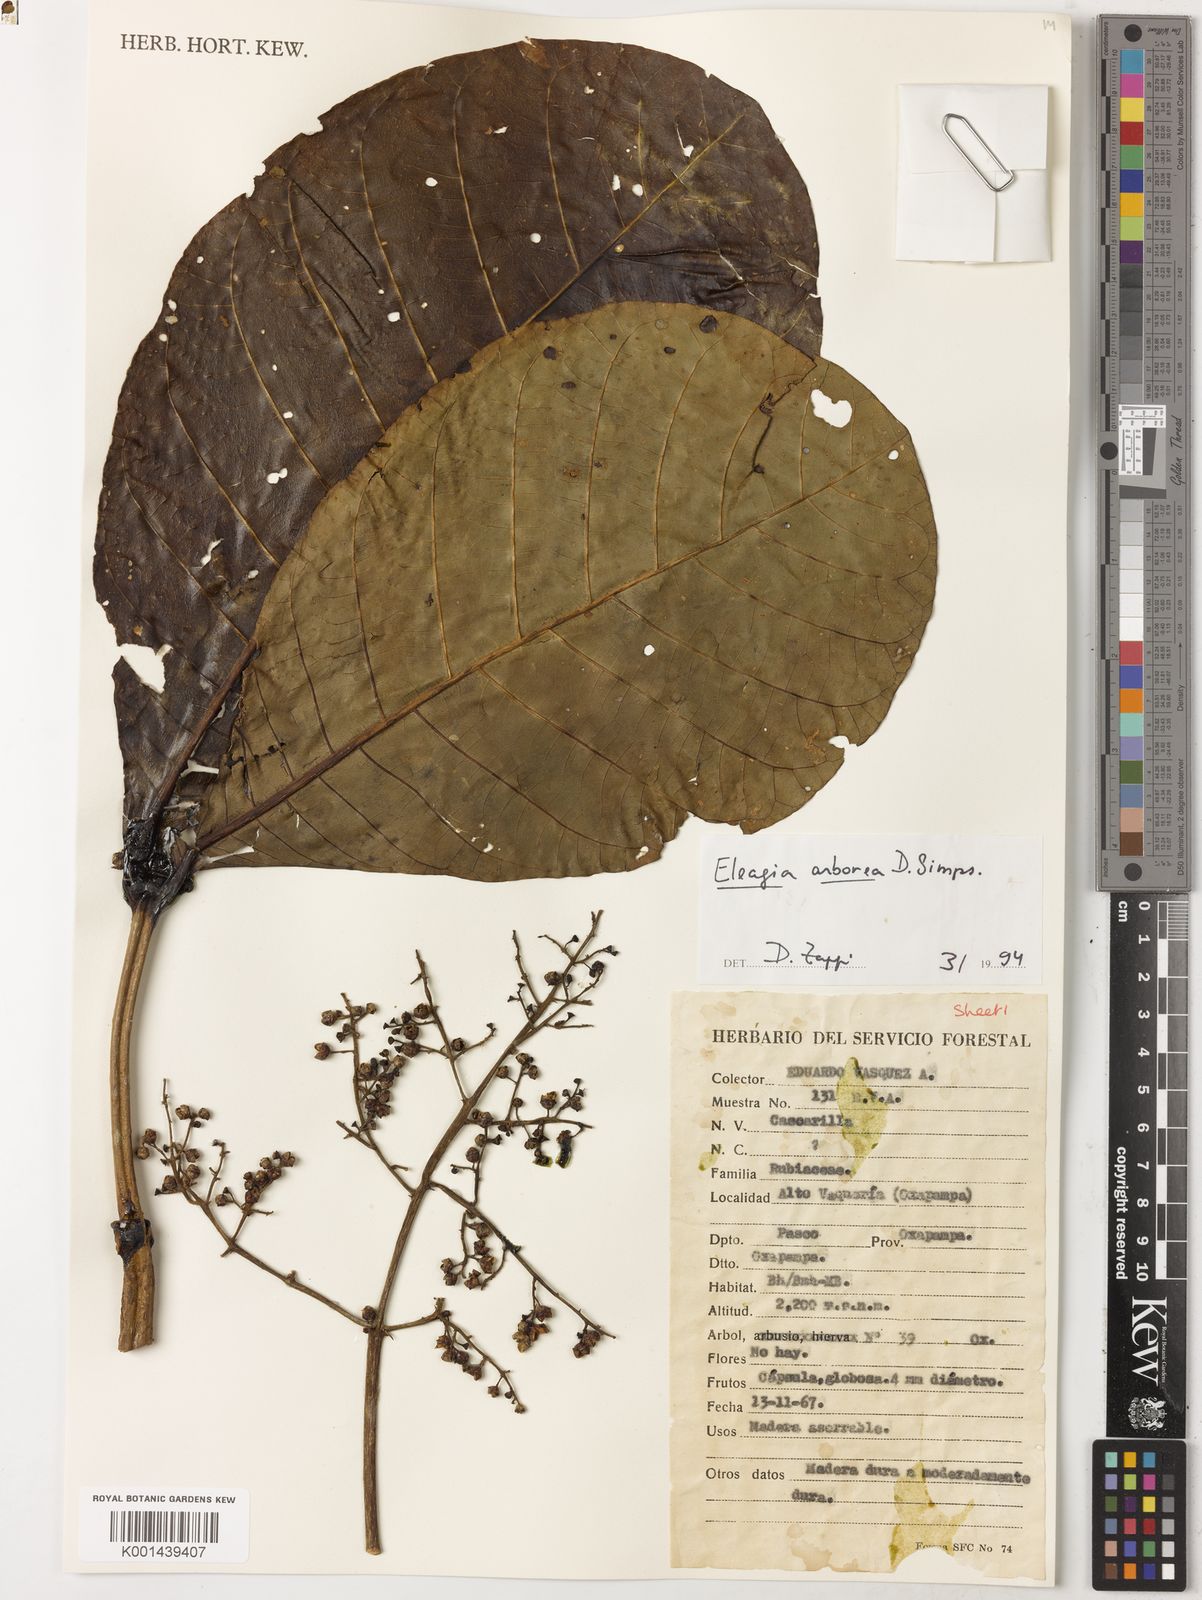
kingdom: Plantae
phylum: Tracheophyta
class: Magnoliopsida
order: Gentianales
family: Rubiaceae
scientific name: Rubiaceae
